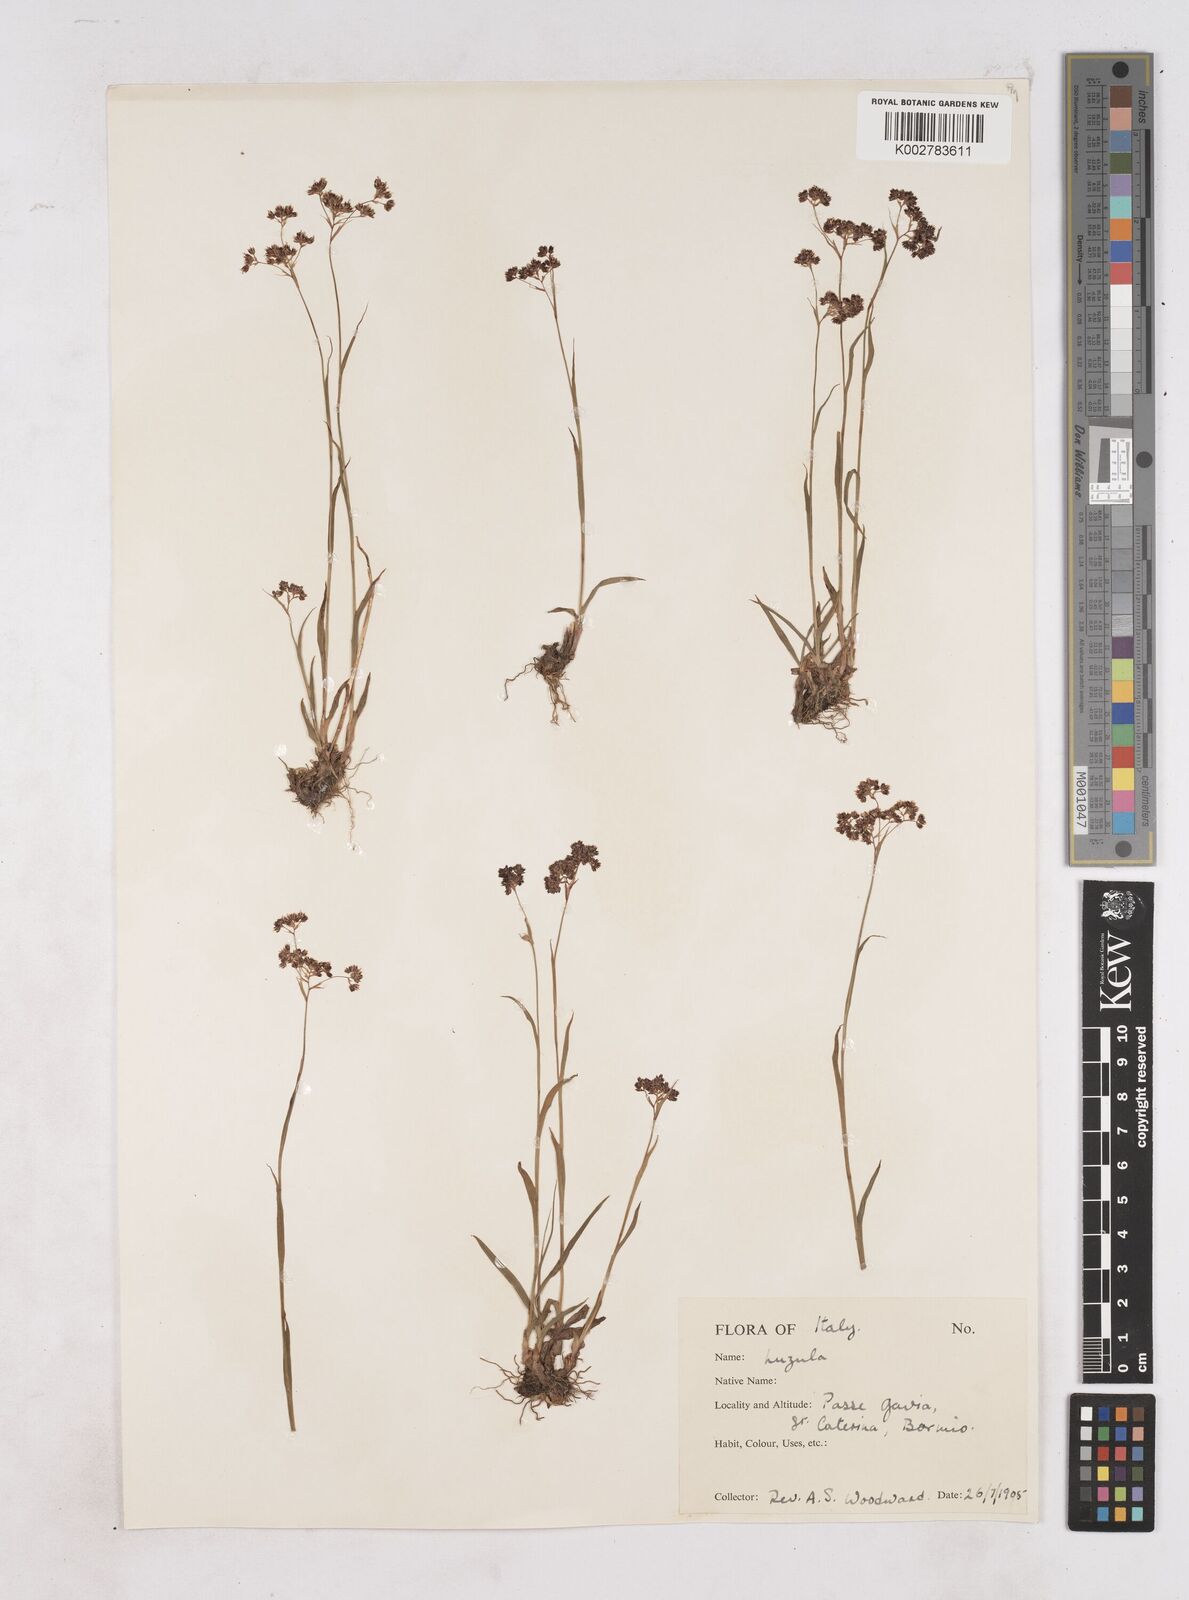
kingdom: Plantae
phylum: Tracheophyta
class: Liliopsida
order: Poales
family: Juncaceae
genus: Luzula
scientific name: Luzula
